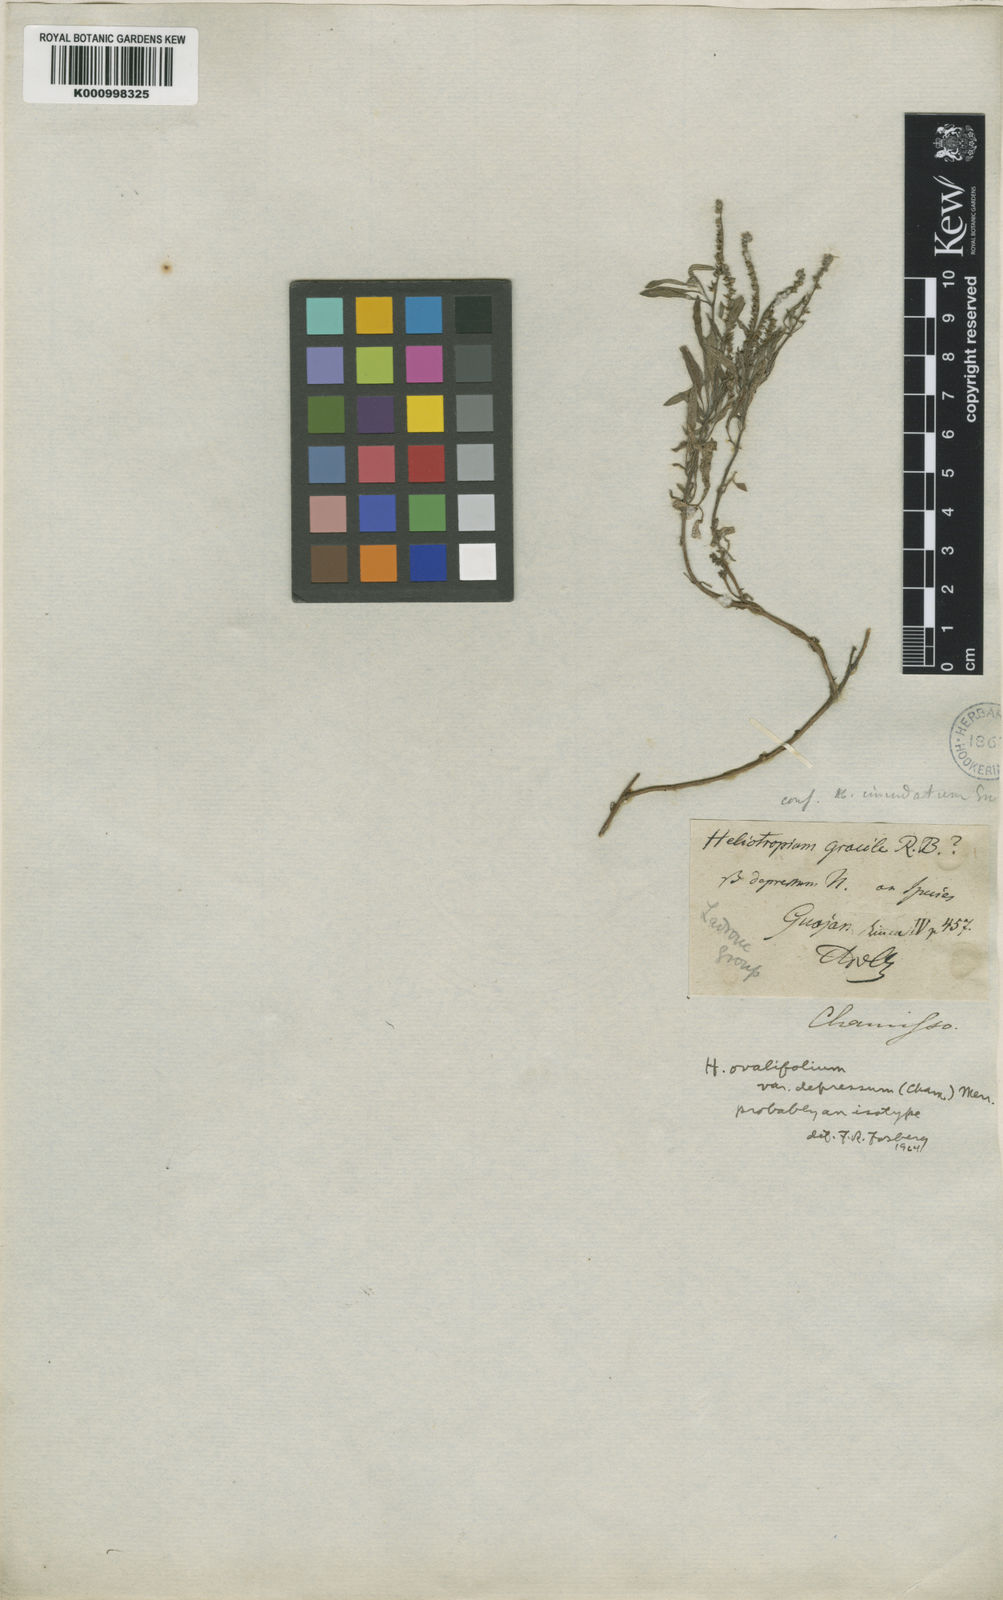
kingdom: Plantae
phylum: Tracheophyta
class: Magnoliopsida
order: Boraginales
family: Heliotropiaceae
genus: Euploca
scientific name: Euploca ovalifolia
